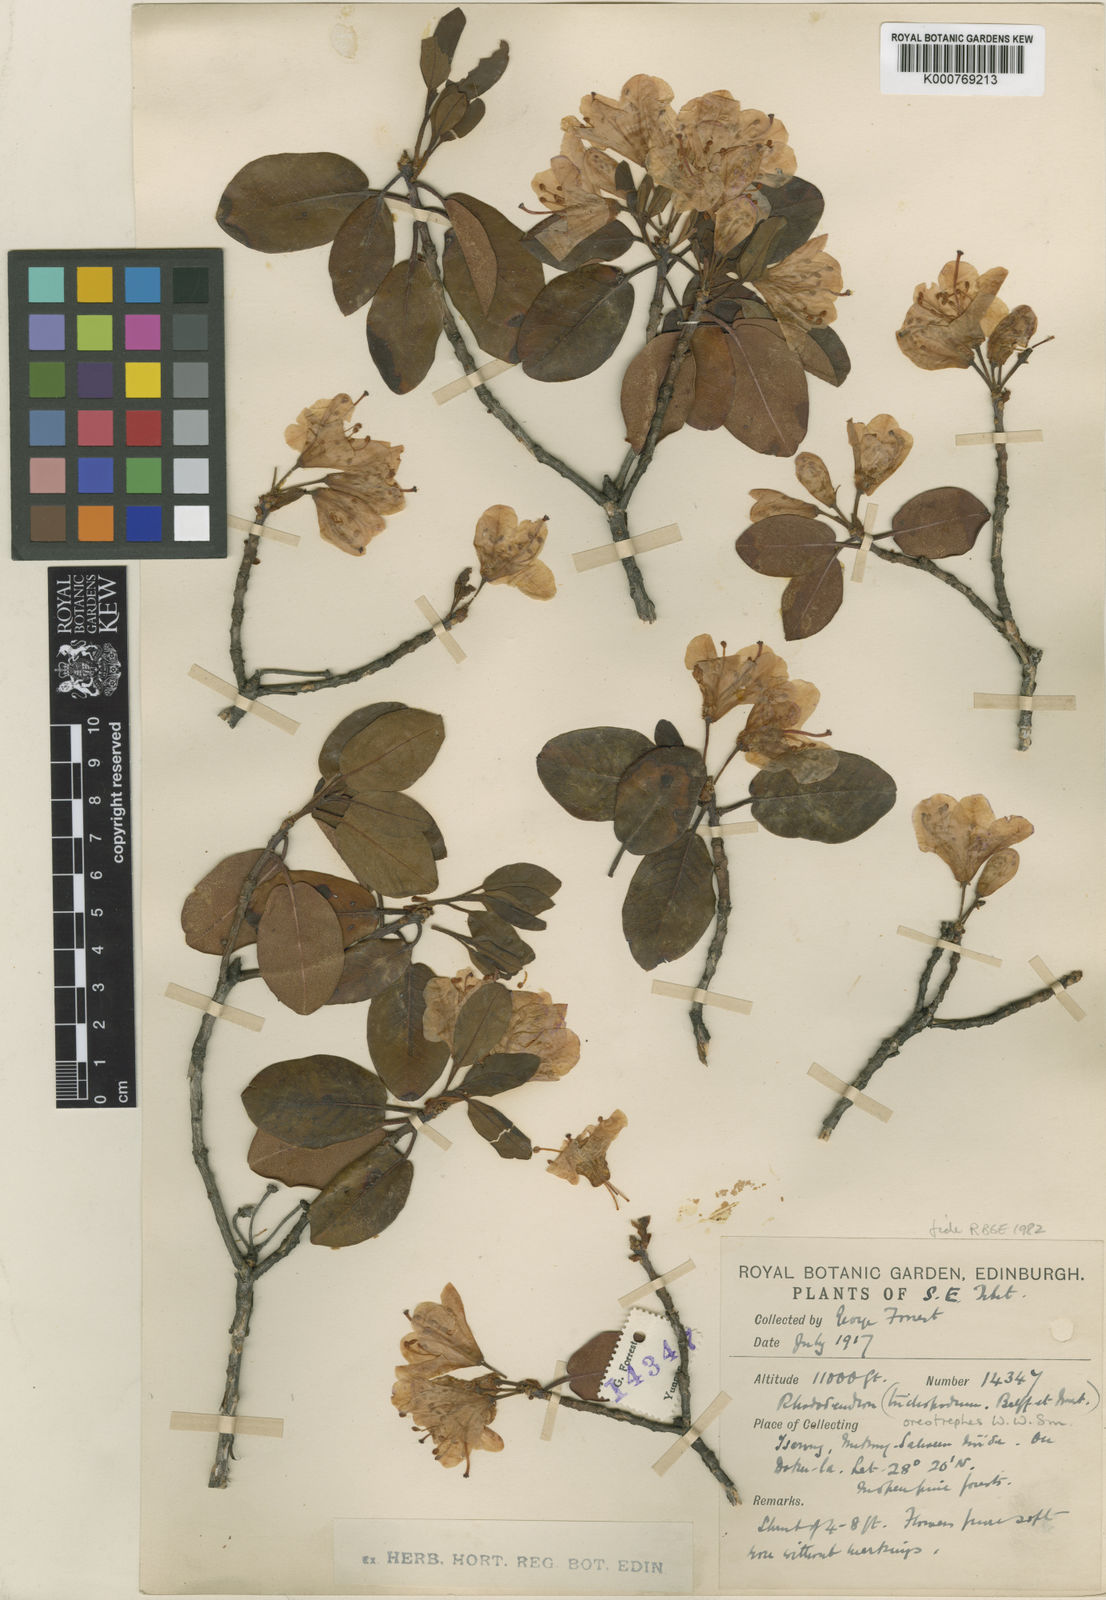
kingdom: Plantae
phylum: Tracheophyta
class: Magnoliopsida
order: Ericales
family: Ericaceae
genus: Rhododendron
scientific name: Rhododendron oreotrephes
